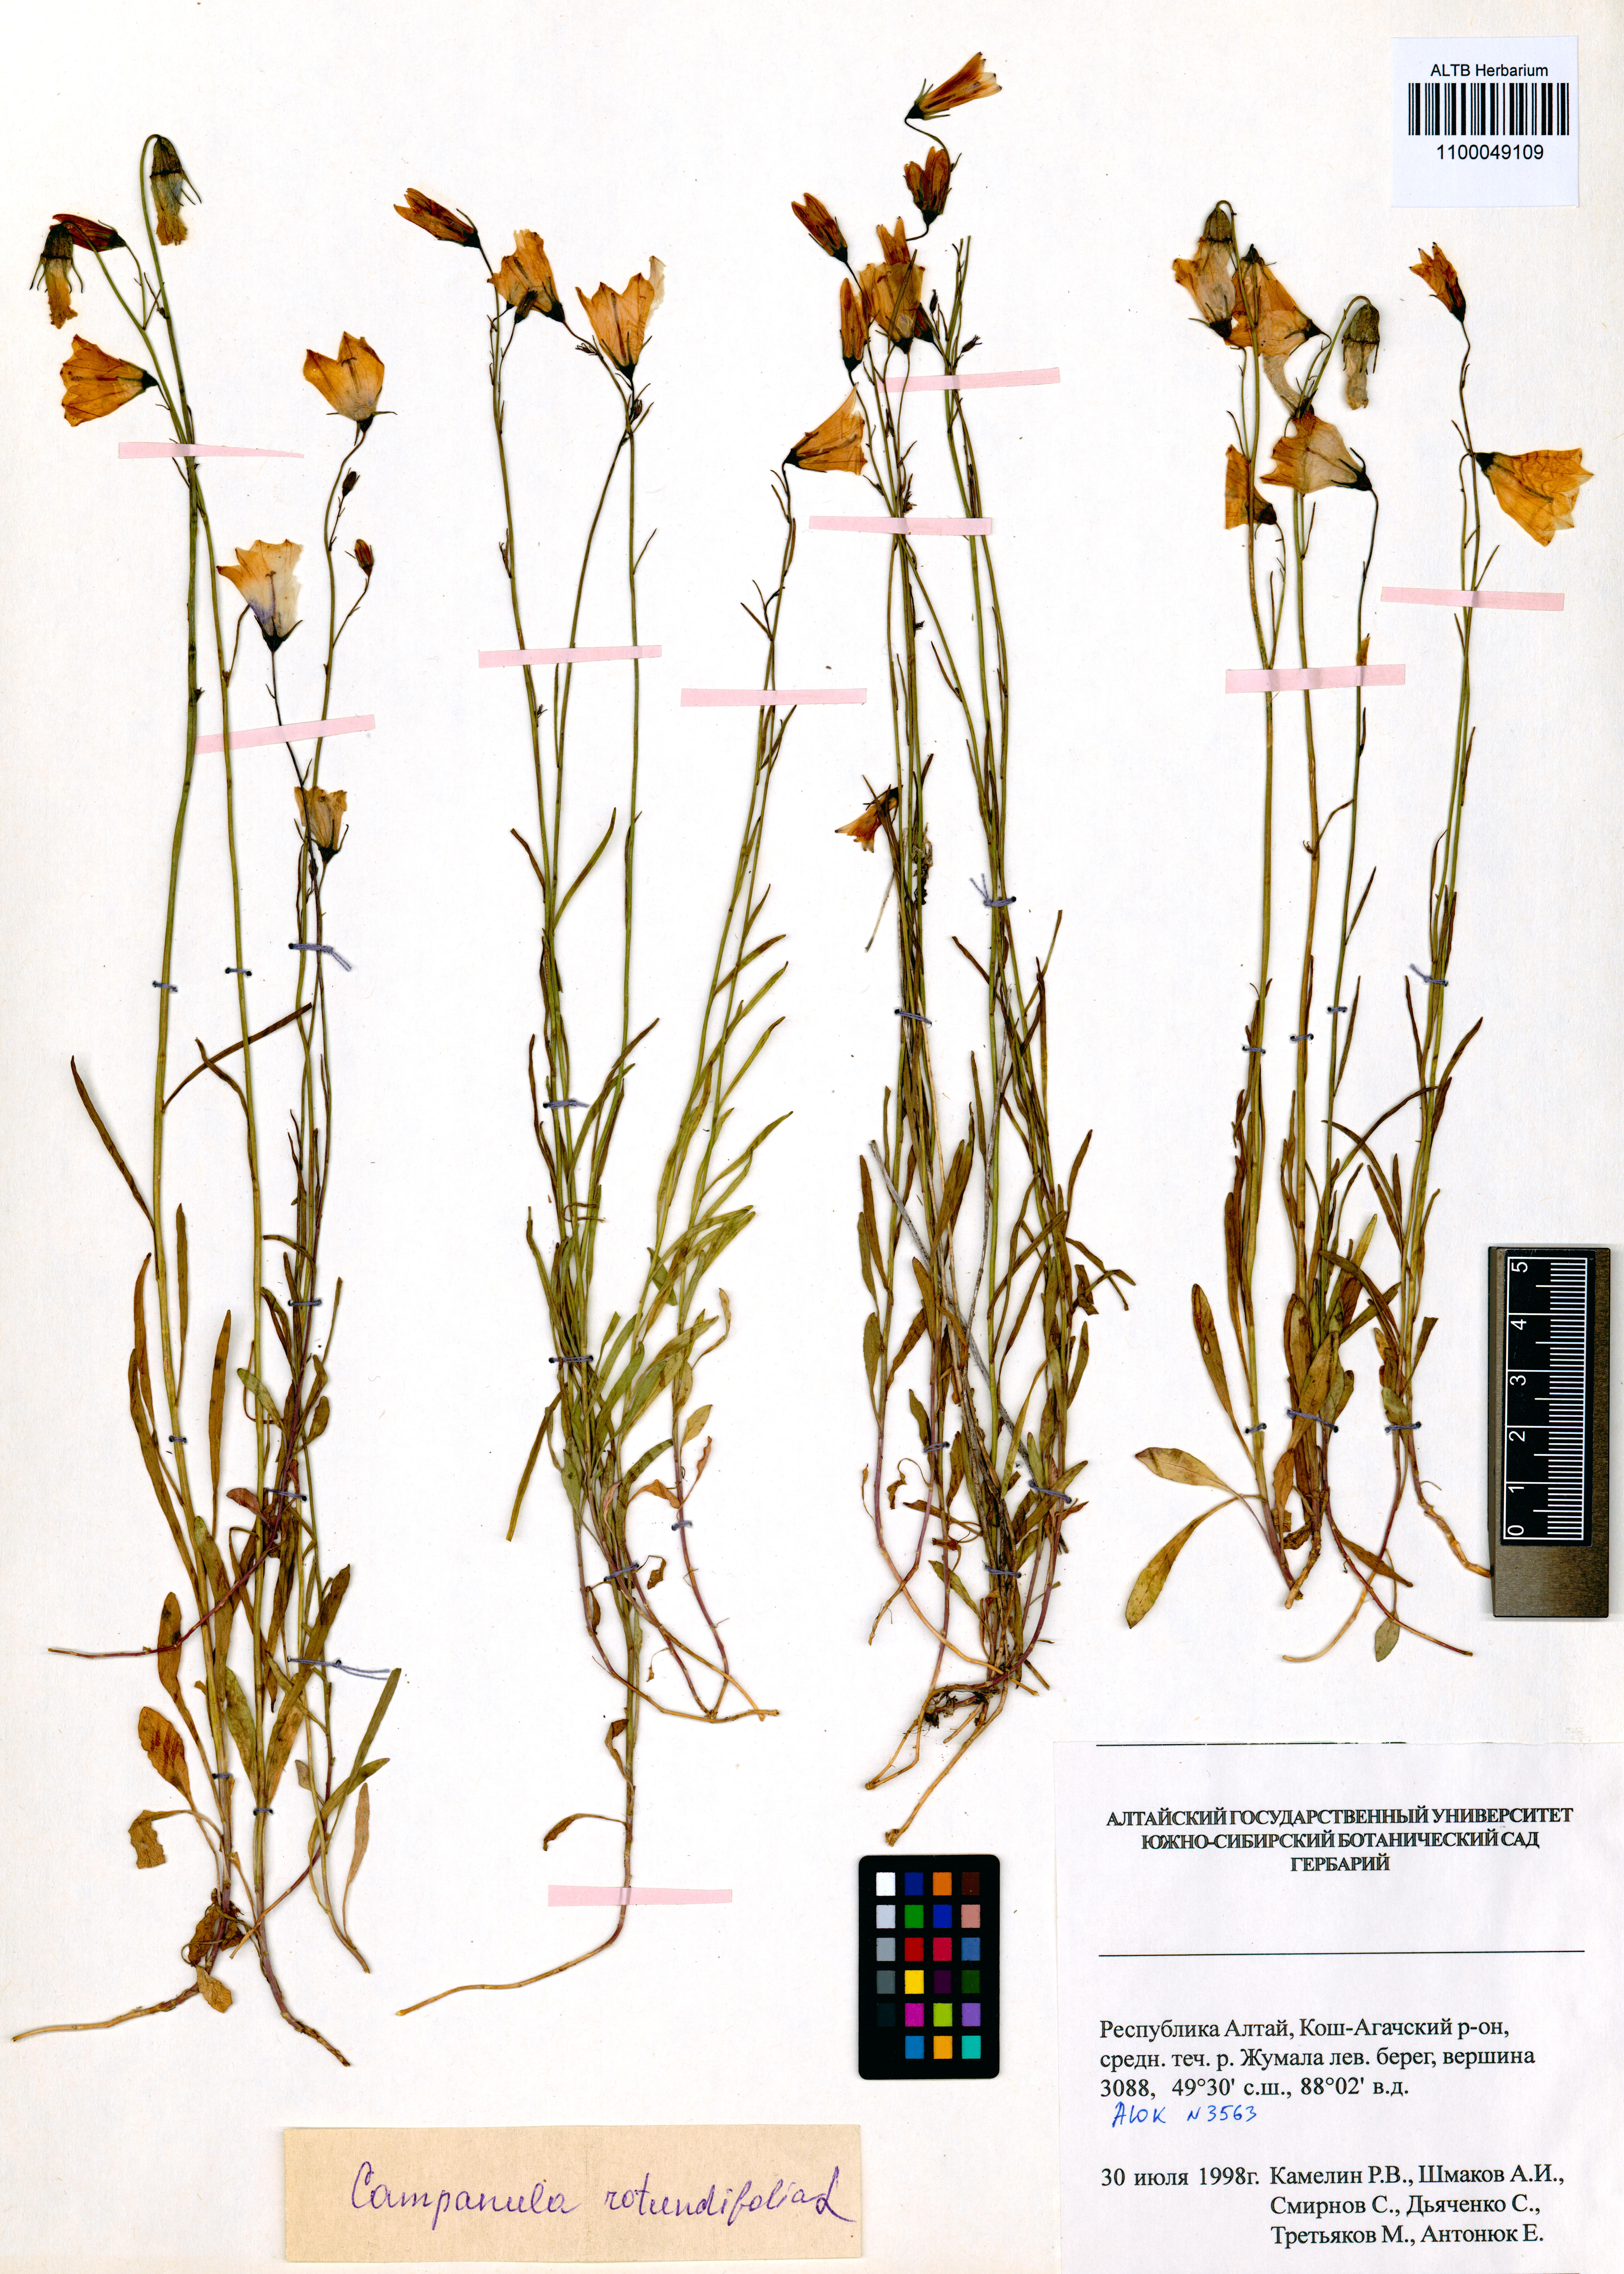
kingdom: Plantae
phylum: Tracheophyta
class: Magnoliopsida
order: Asterales
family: Campanulaceae
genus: Campanula
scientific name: Campanula rotundifolia
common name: Harebell
